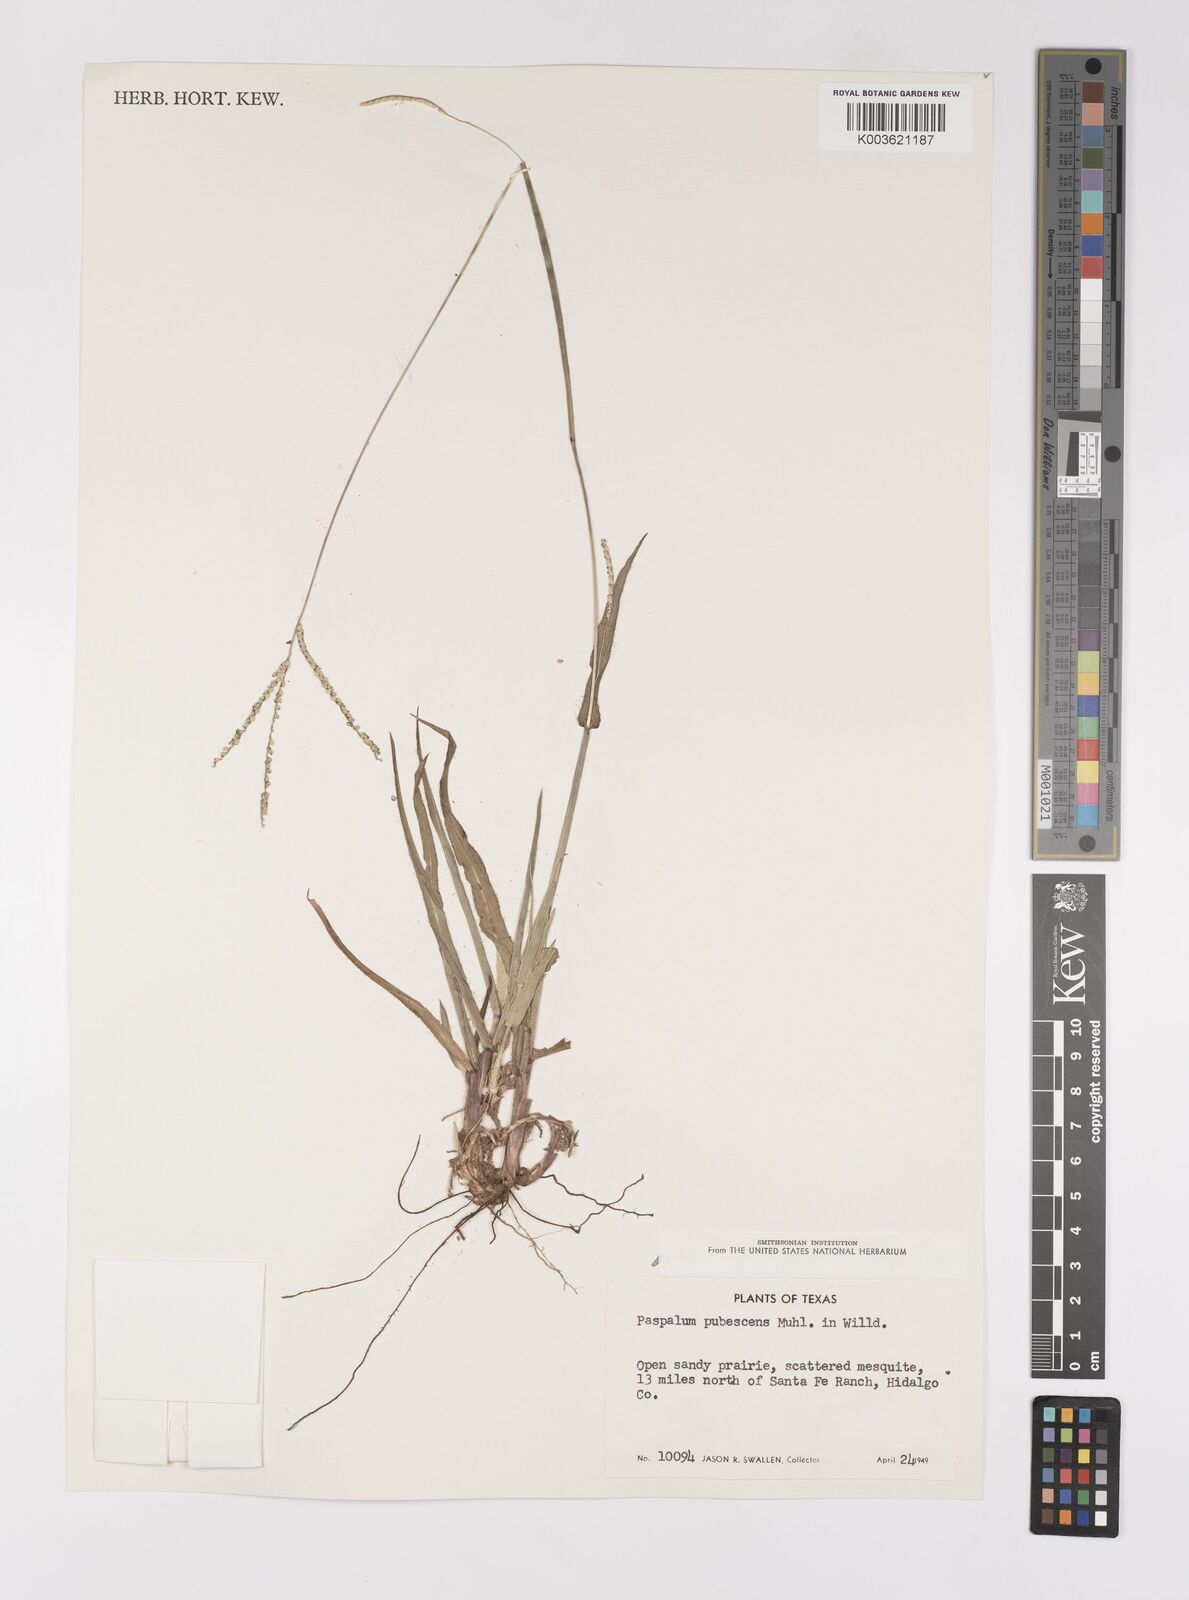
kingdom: Plantae
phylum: Tracheophyta
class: Liliopsida
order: Poales
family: Poaceae
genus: Paspalum
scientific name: Paspalum setaceum
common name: Slender paspalum
